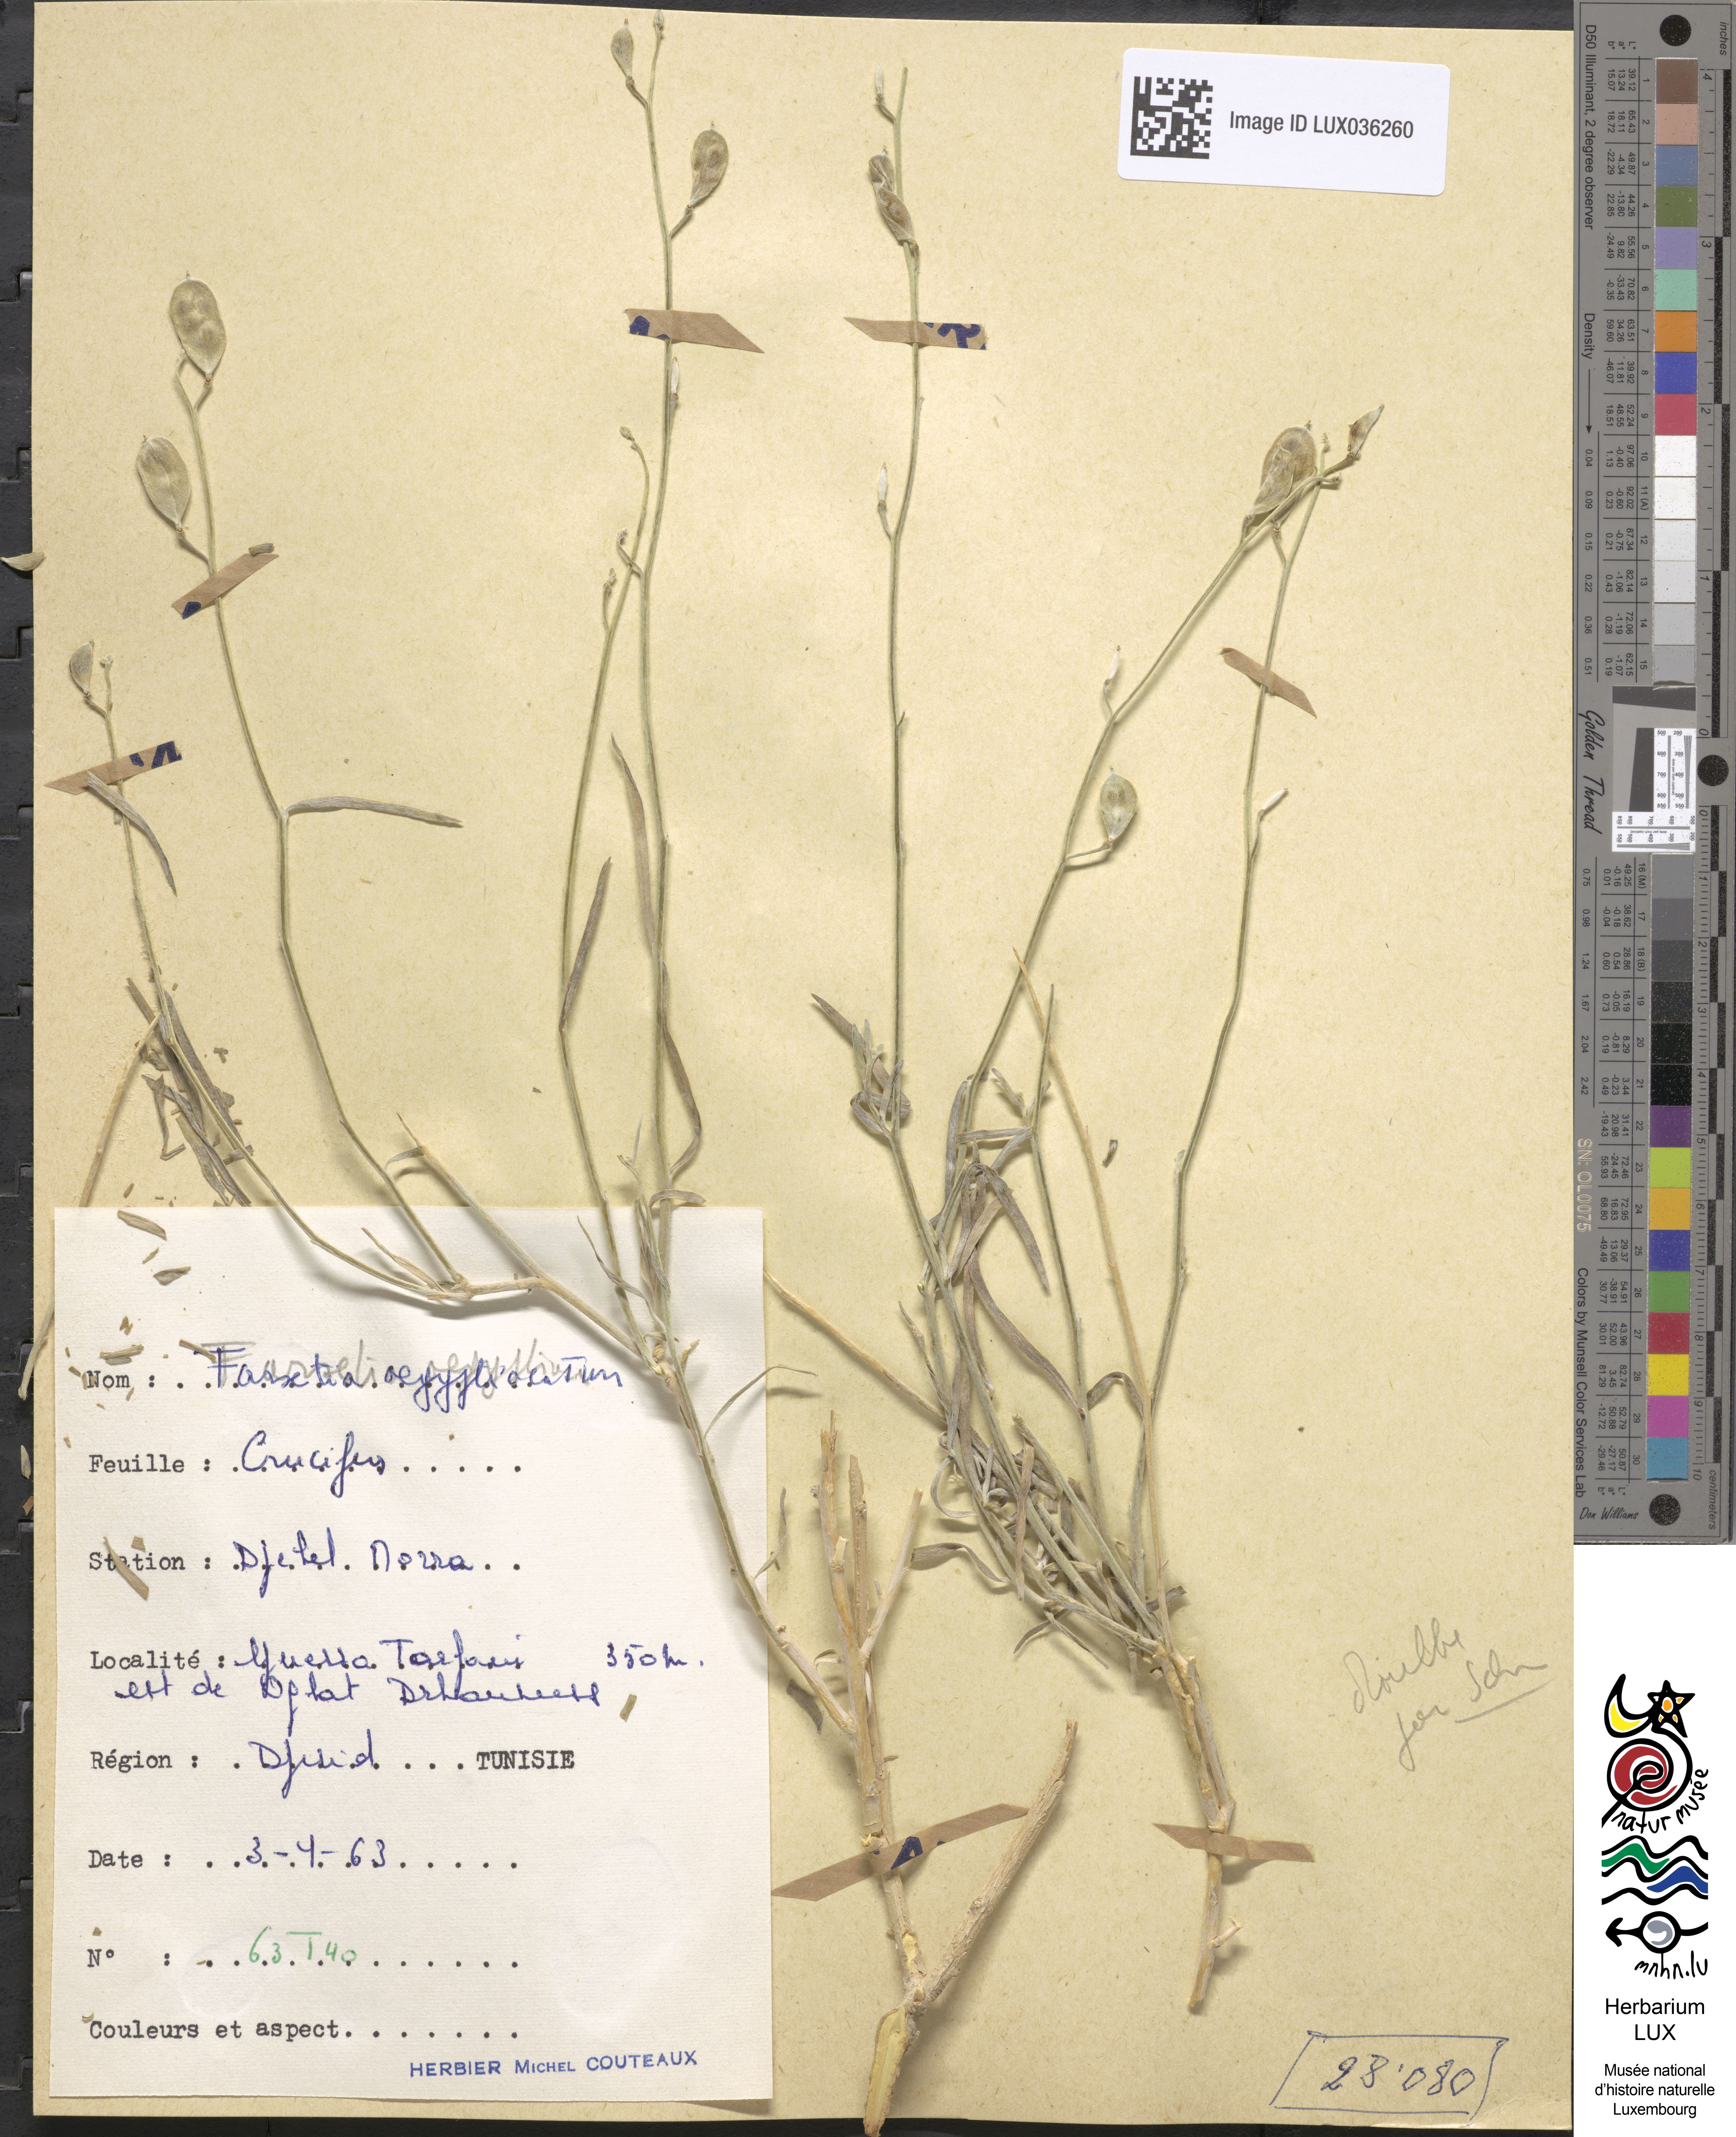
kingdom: Plantae
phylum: Tracheophyta
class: Magnoliopsida
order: Brassicales
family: Brassicaceae
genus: Farsetia
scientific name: Farsetia aegyptia
